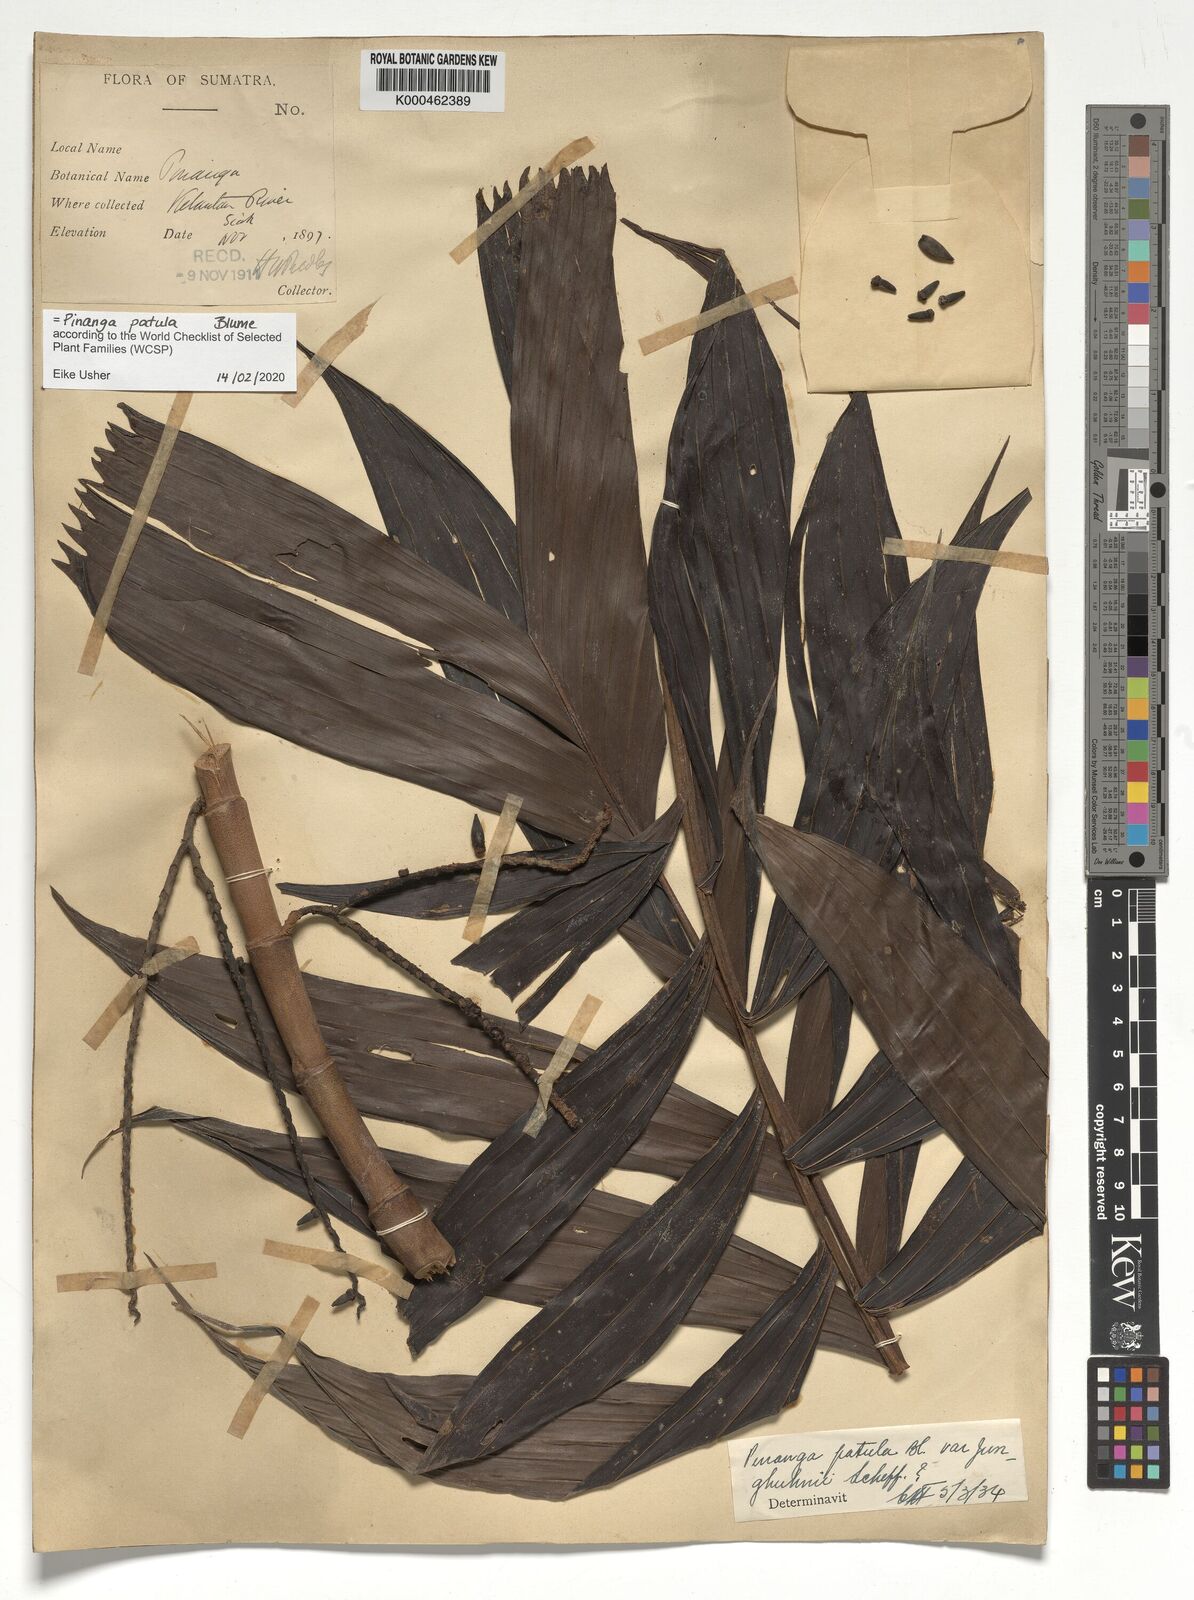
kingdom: Plantae
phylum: Tracheophyta
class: Liliopsida
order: Arecales
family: Arecaceae
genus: Pinanga
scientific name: Pinanga patula
